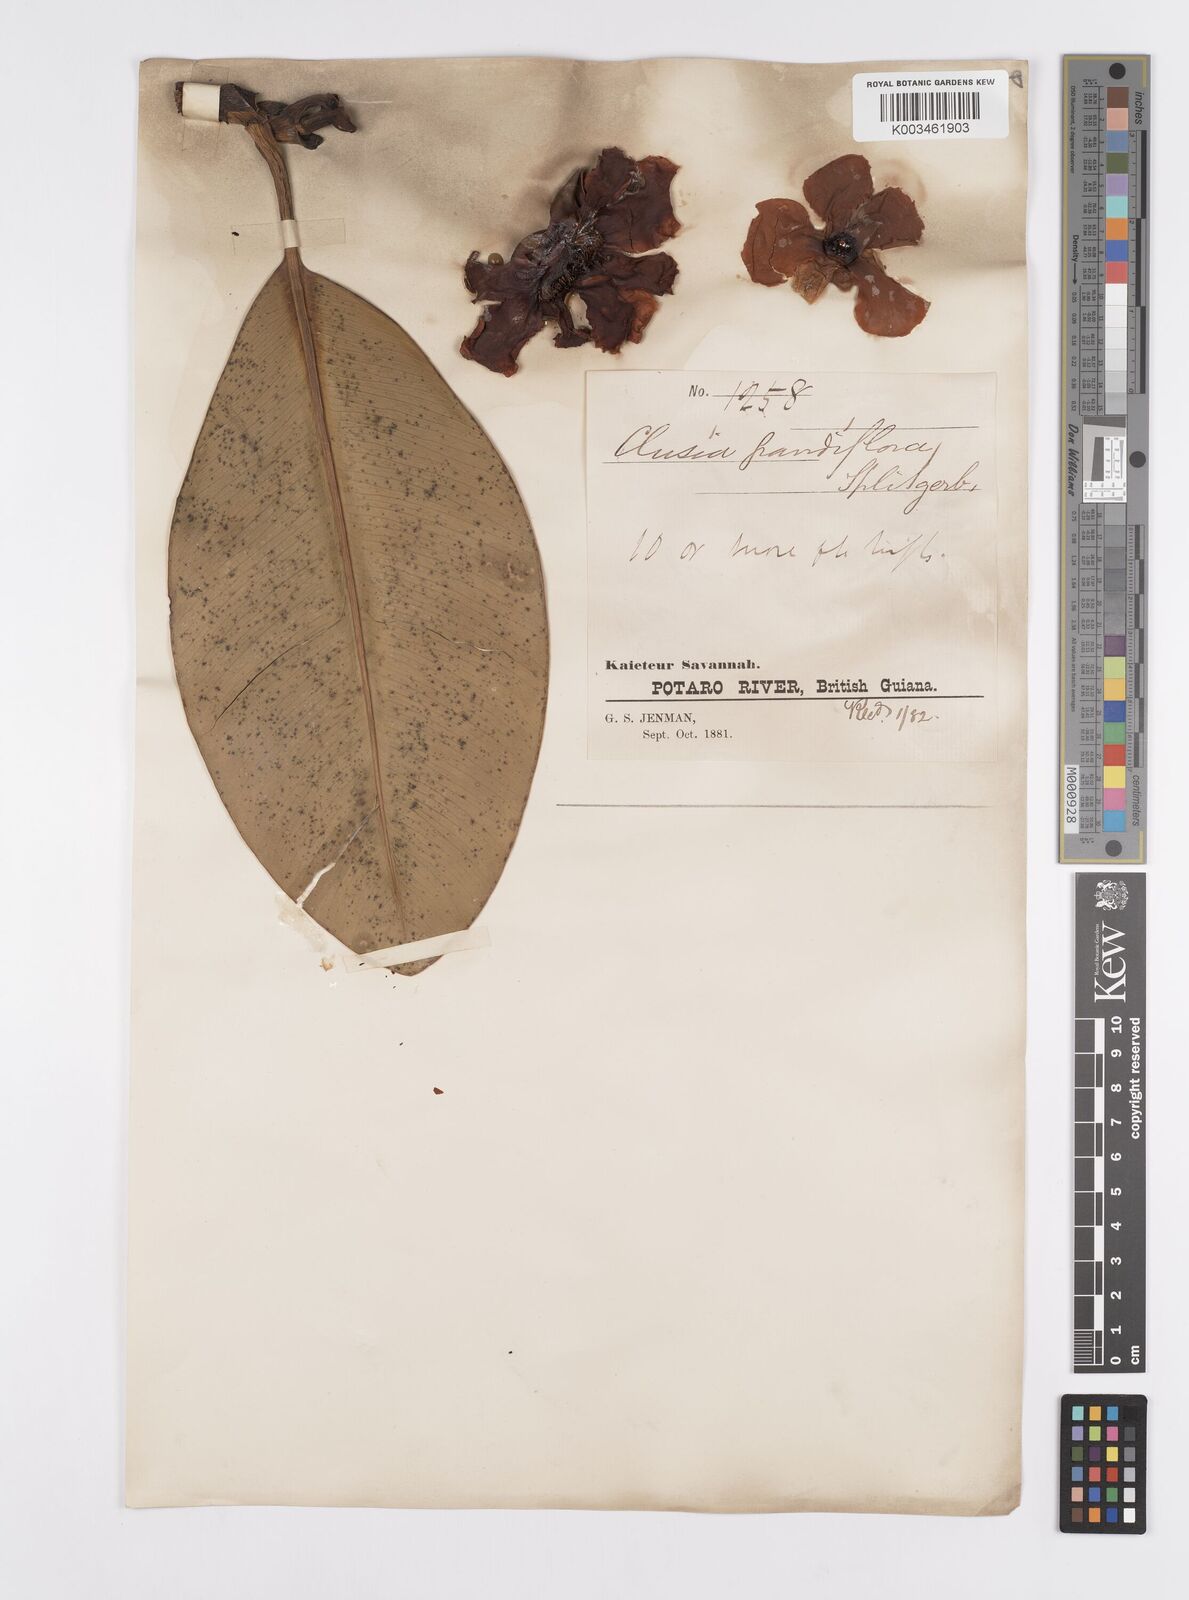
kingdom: Plantae
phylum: Tracheophyta
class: Magnoliopsida
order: Malpighiales
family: Clusiaceae
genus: Clusia
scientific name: Clusia grandiflora
